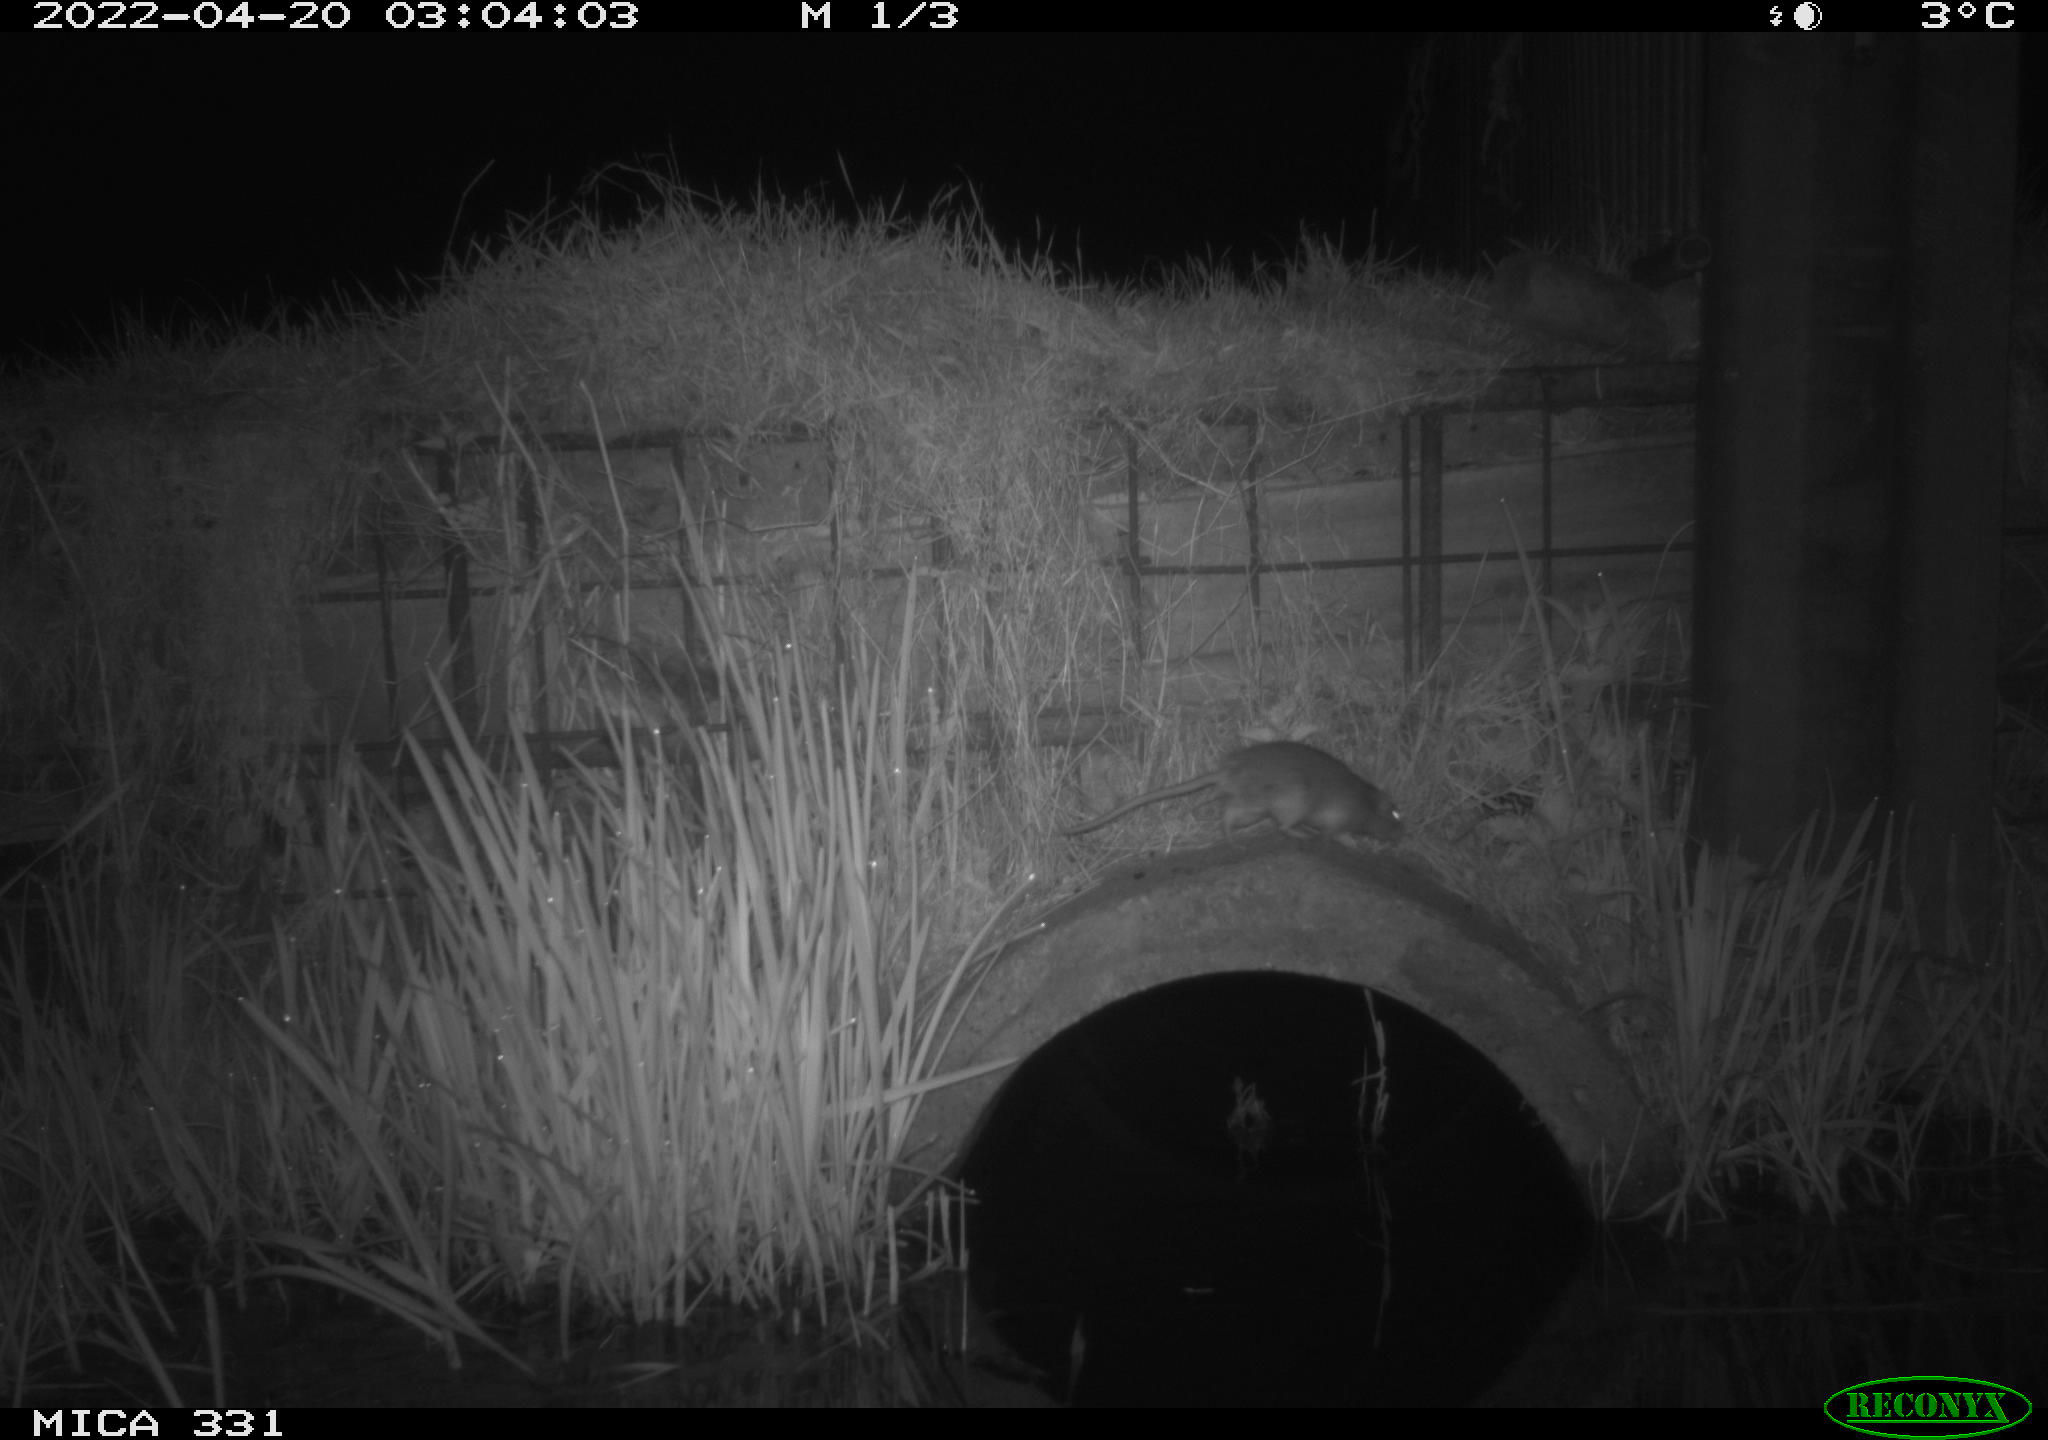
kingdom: Animalia
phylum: Chordata
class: Mammalia
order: Rodentia
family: Muridae
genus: Rattus
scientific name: Rattus norvegicus
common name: Brown rat
